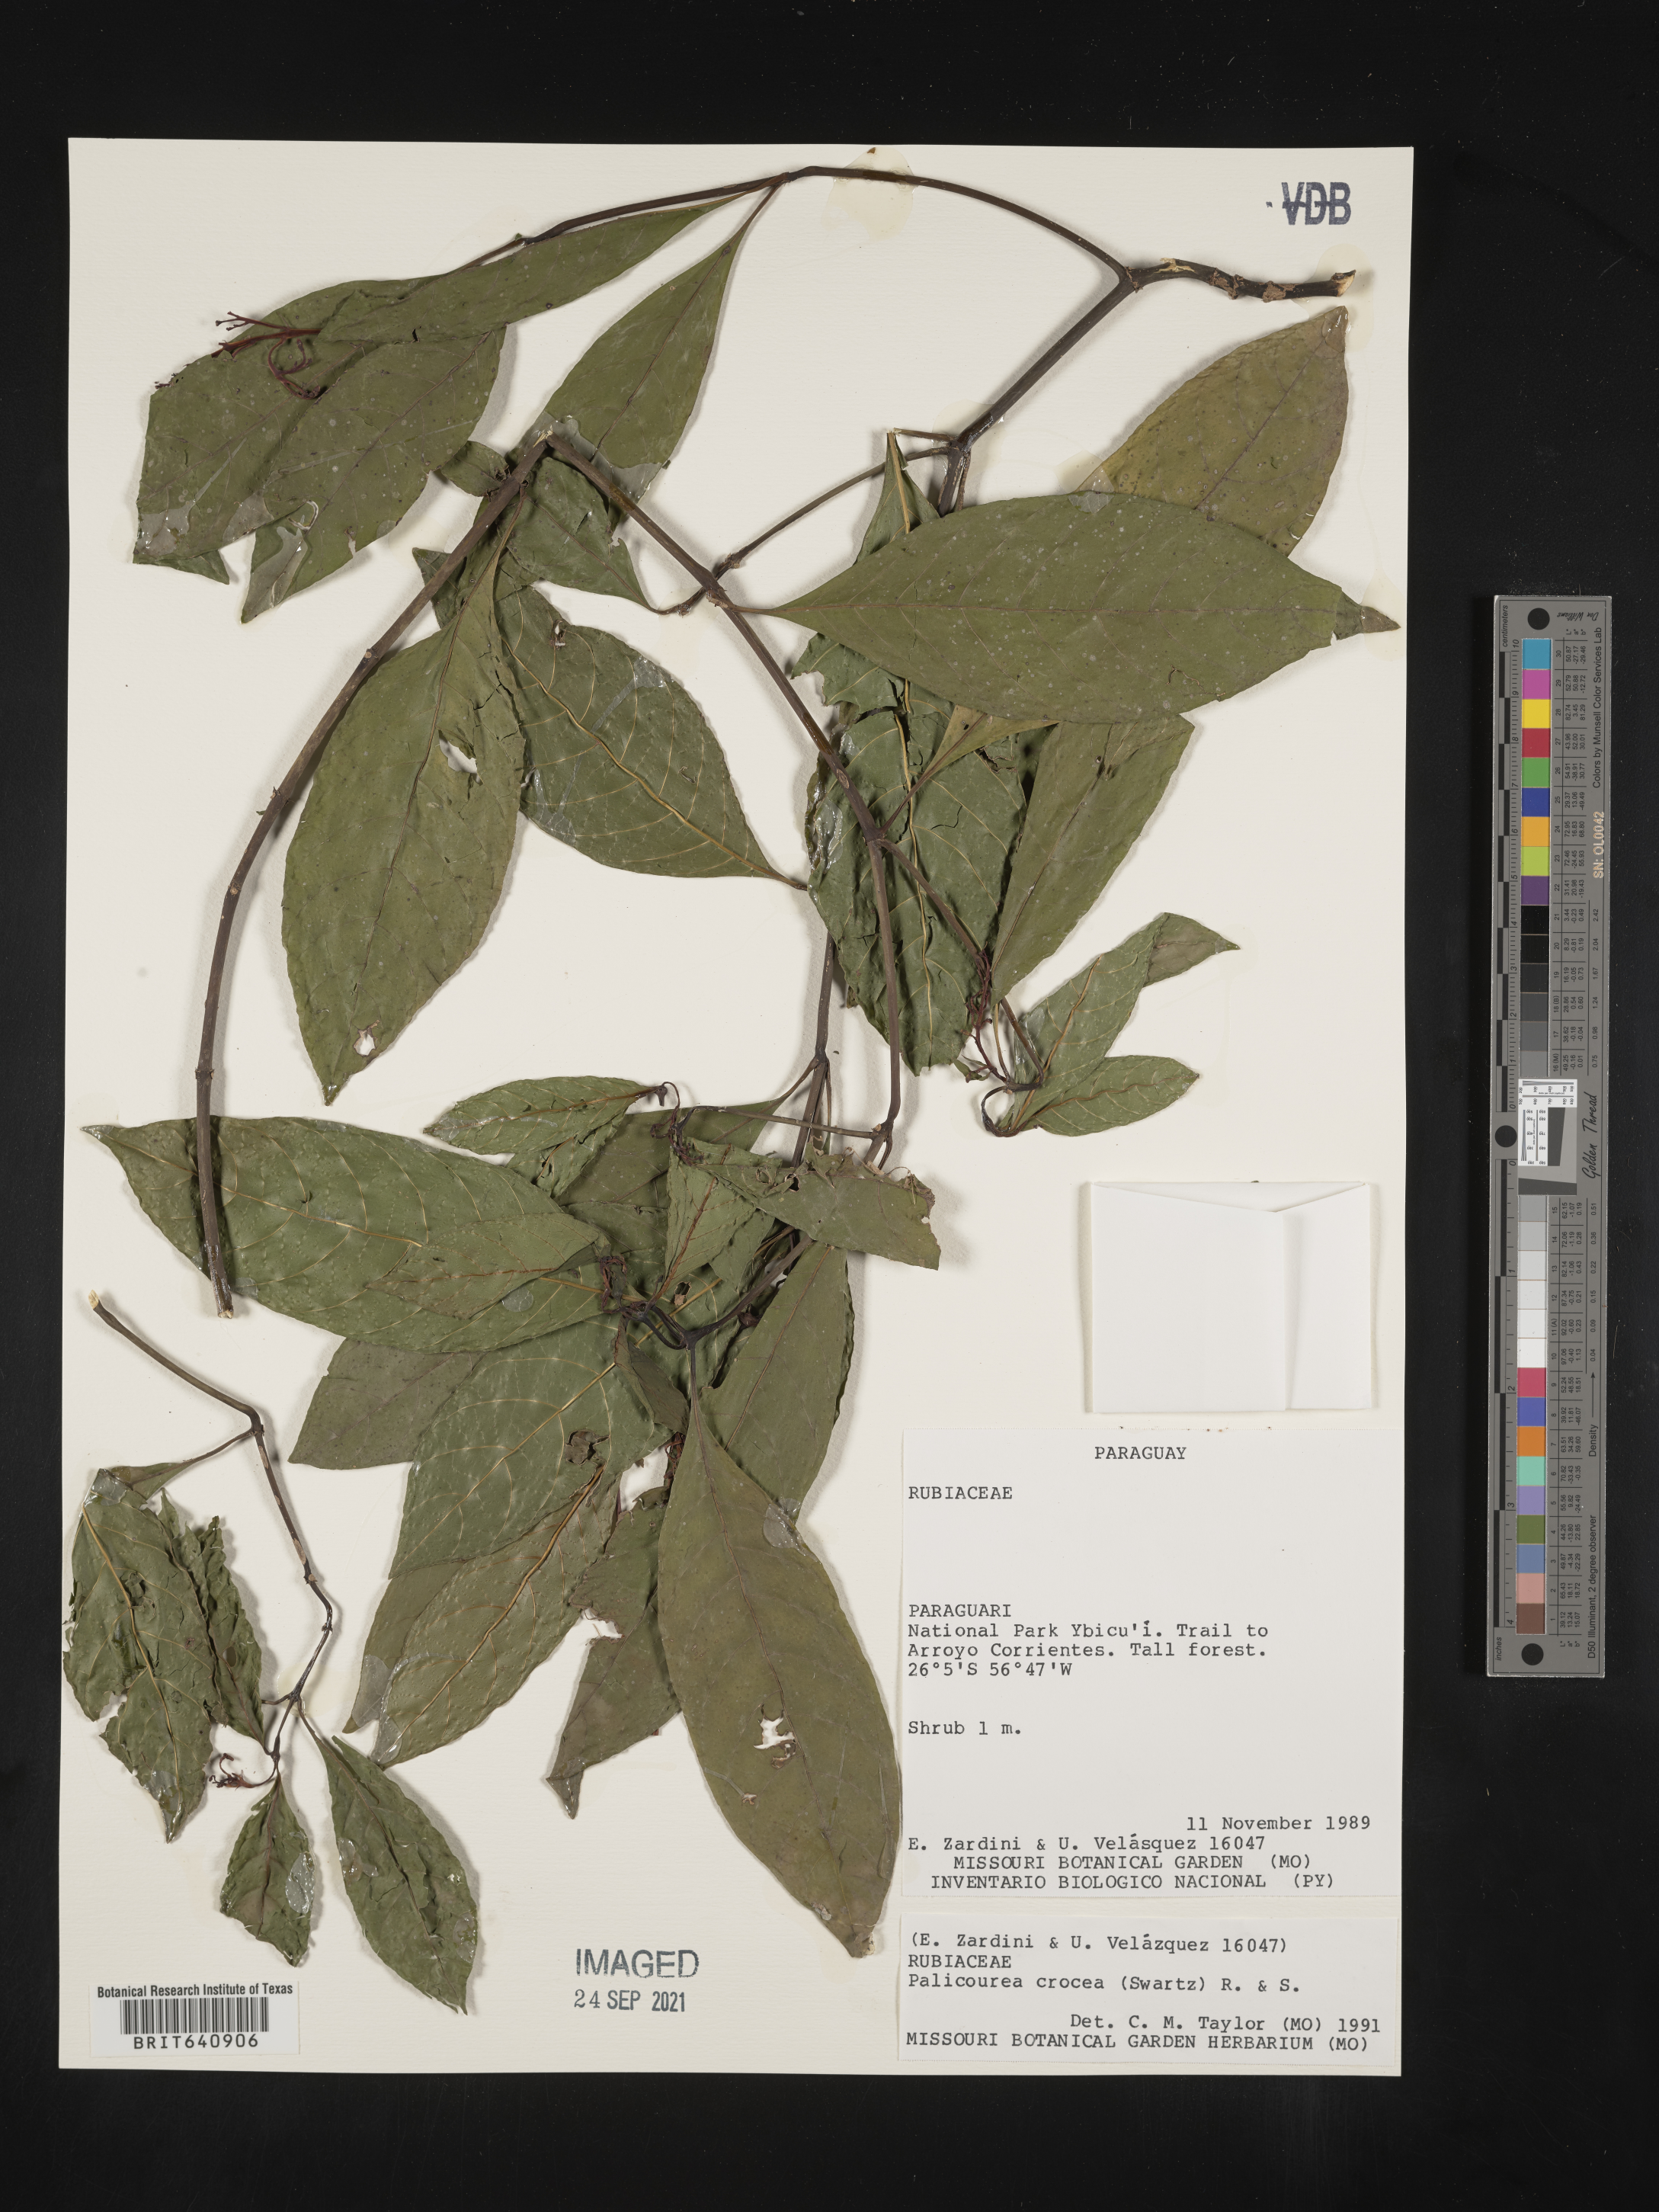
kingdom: Plantae
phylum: Tracheophyta
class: Magnoliopsida
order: Gentianales
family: Rubiaceae
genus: Palicourea
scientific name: Palicourea
